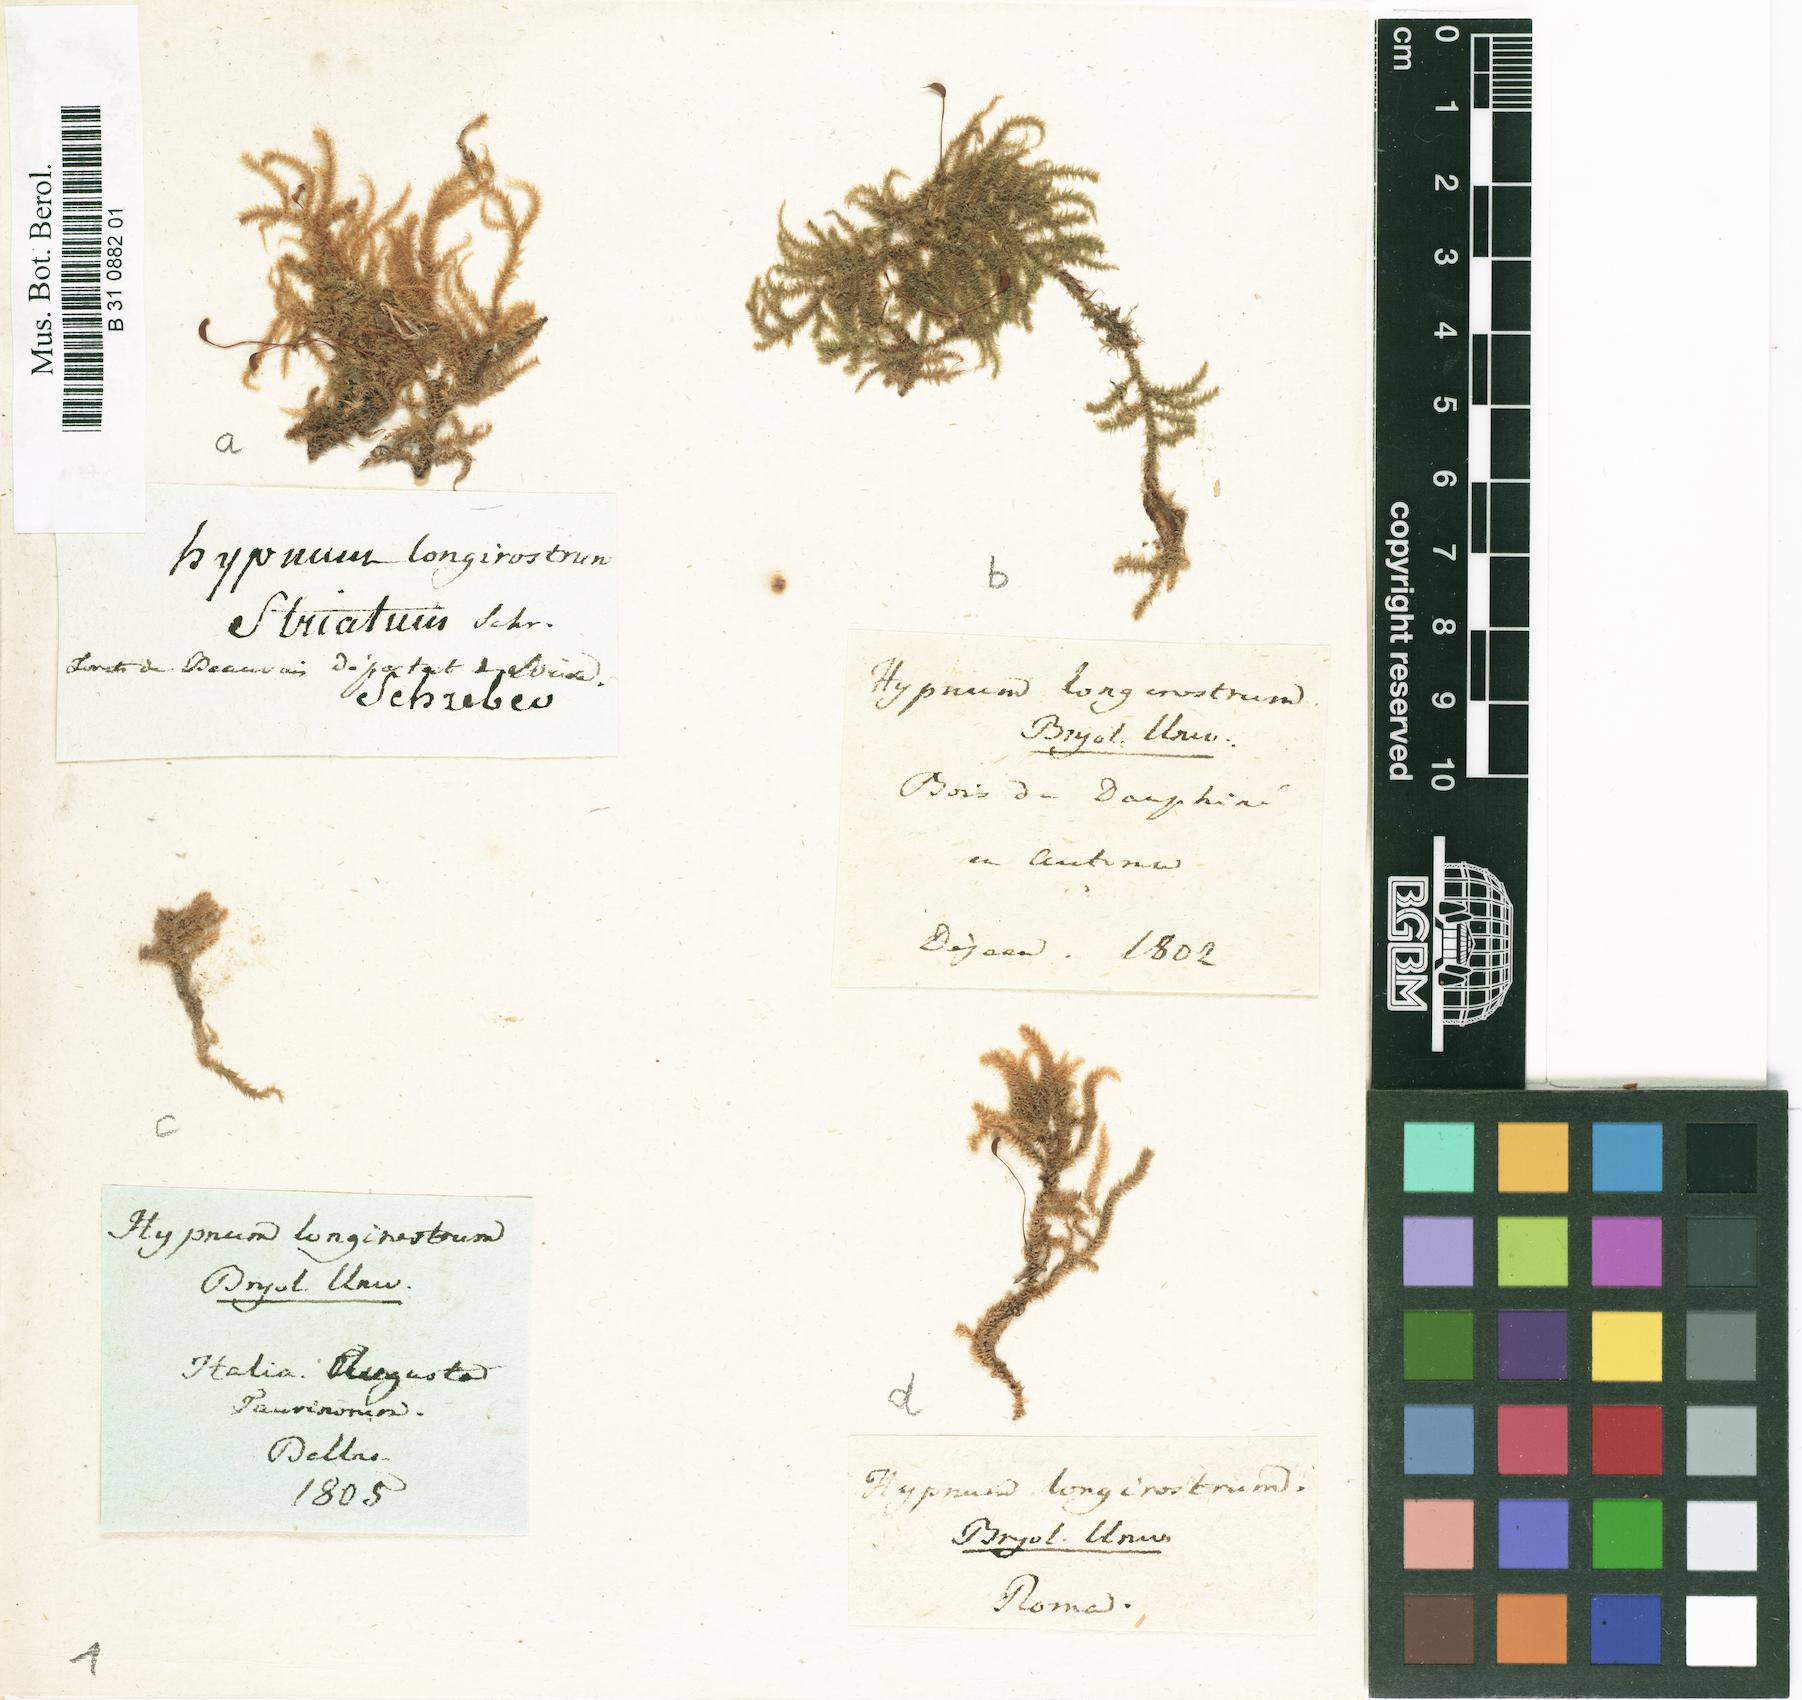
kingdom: Plantae
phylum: Bryophyta
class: Bryopsida
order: Hypnales
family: Brachytheciaceae
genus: Eurhynchium
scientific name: Eurhynchium striatum
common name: Common striated feather-moss
